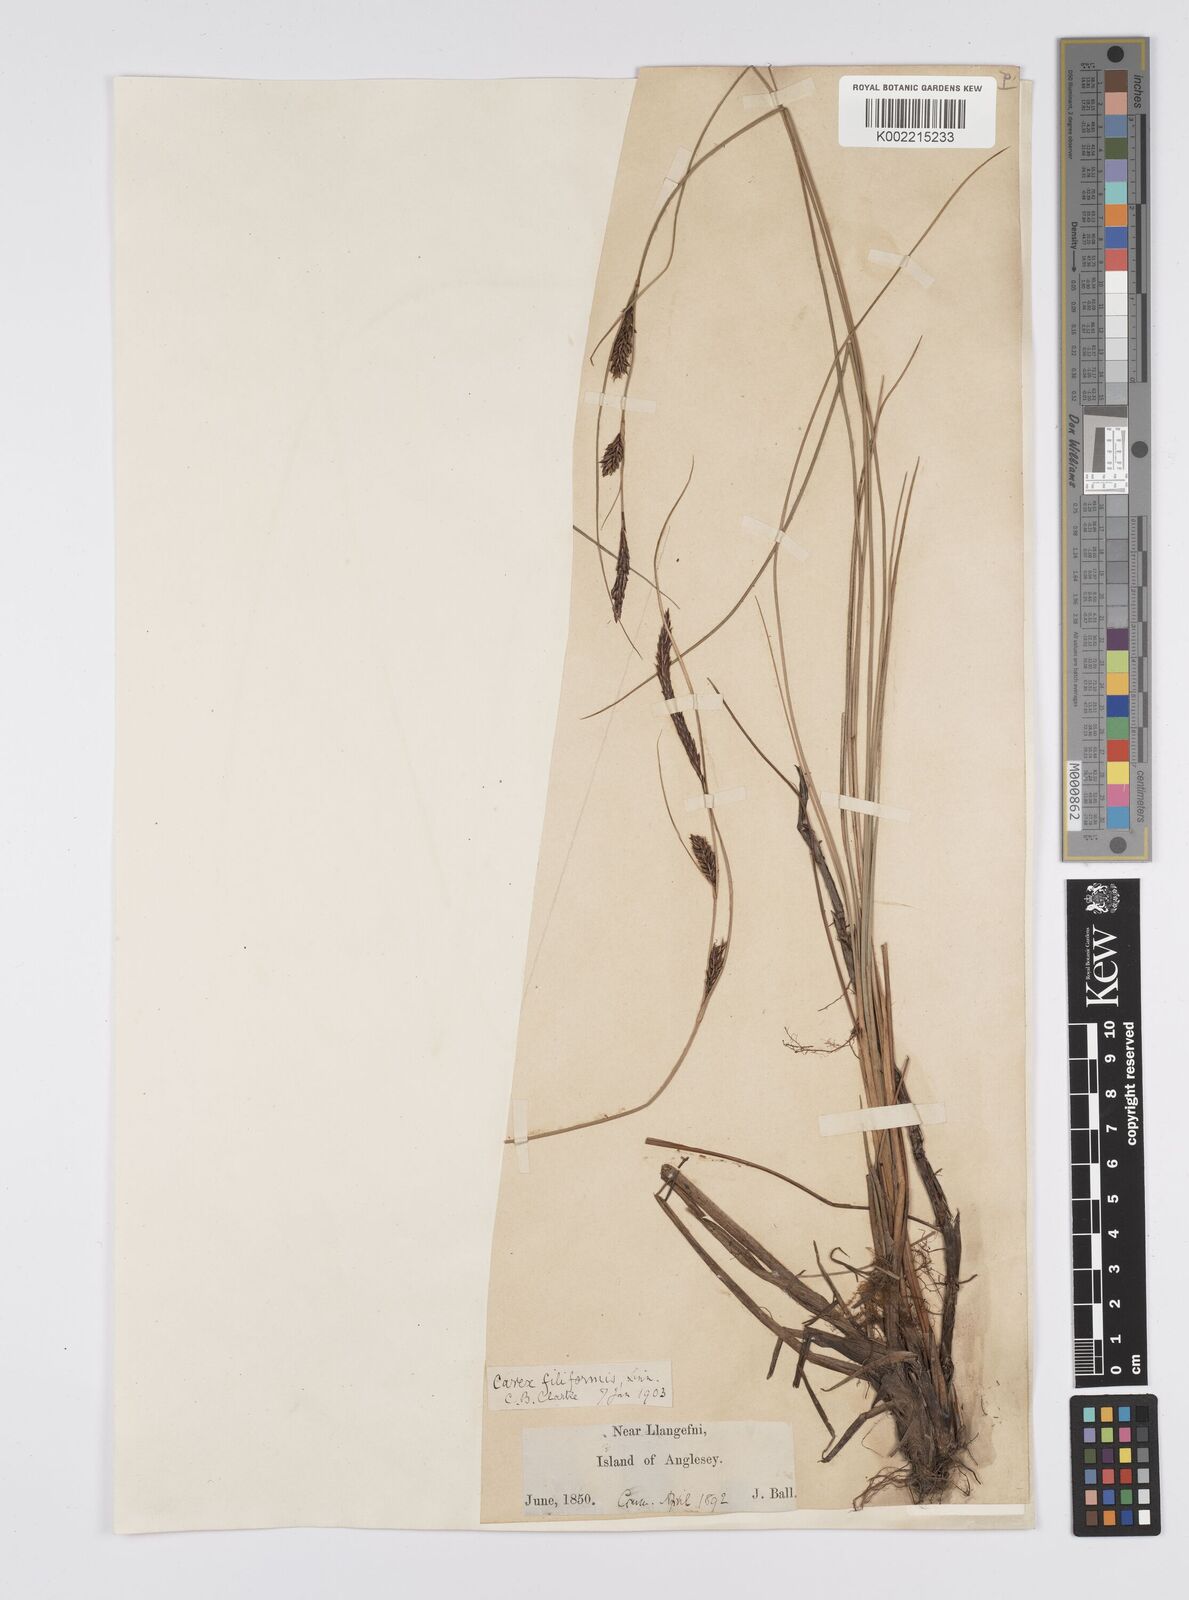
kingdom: Plantae
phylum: Tracheophyta
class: Liliopsida
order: Poales
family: Cyperaceae
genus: Carex
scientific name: Carex lasiocarpa
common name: Slender sedge
